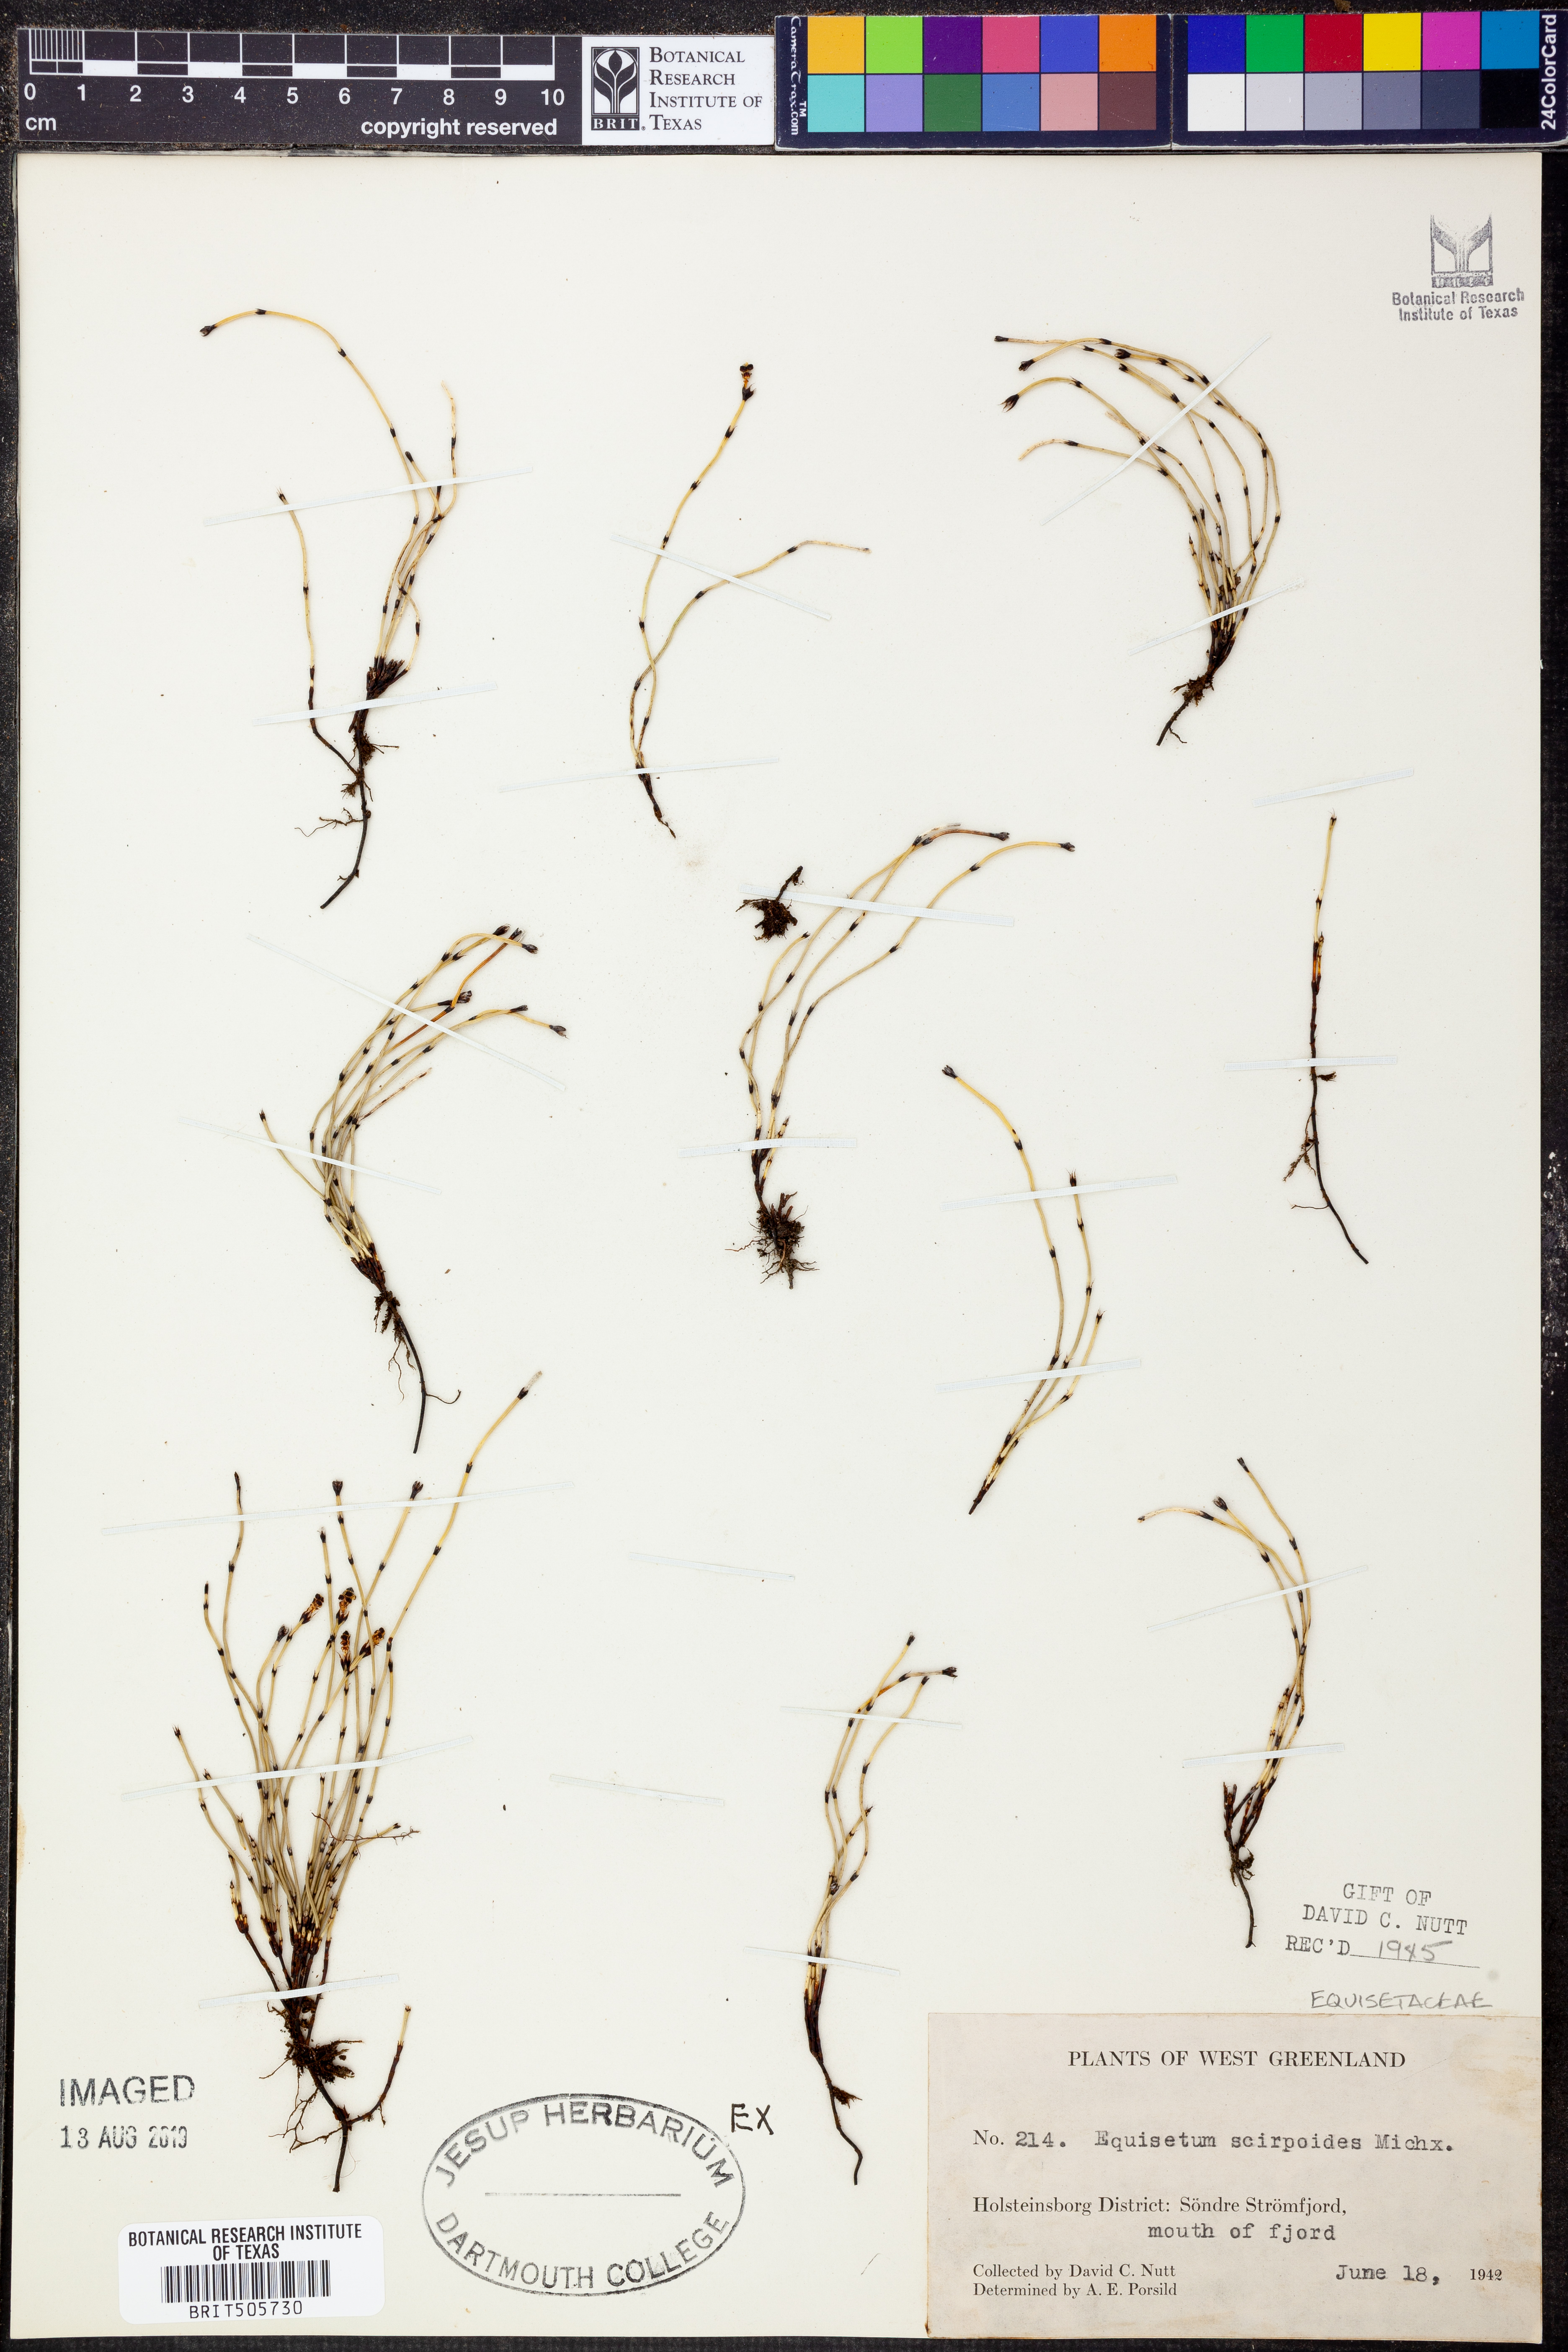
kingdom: Plantae
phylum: Tracheophyta
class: Polypodiopsida
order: Equisetales
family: Equisetaceae
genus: Equisetum
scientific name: Equisetum scirpoides
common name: Delicate horsetail
